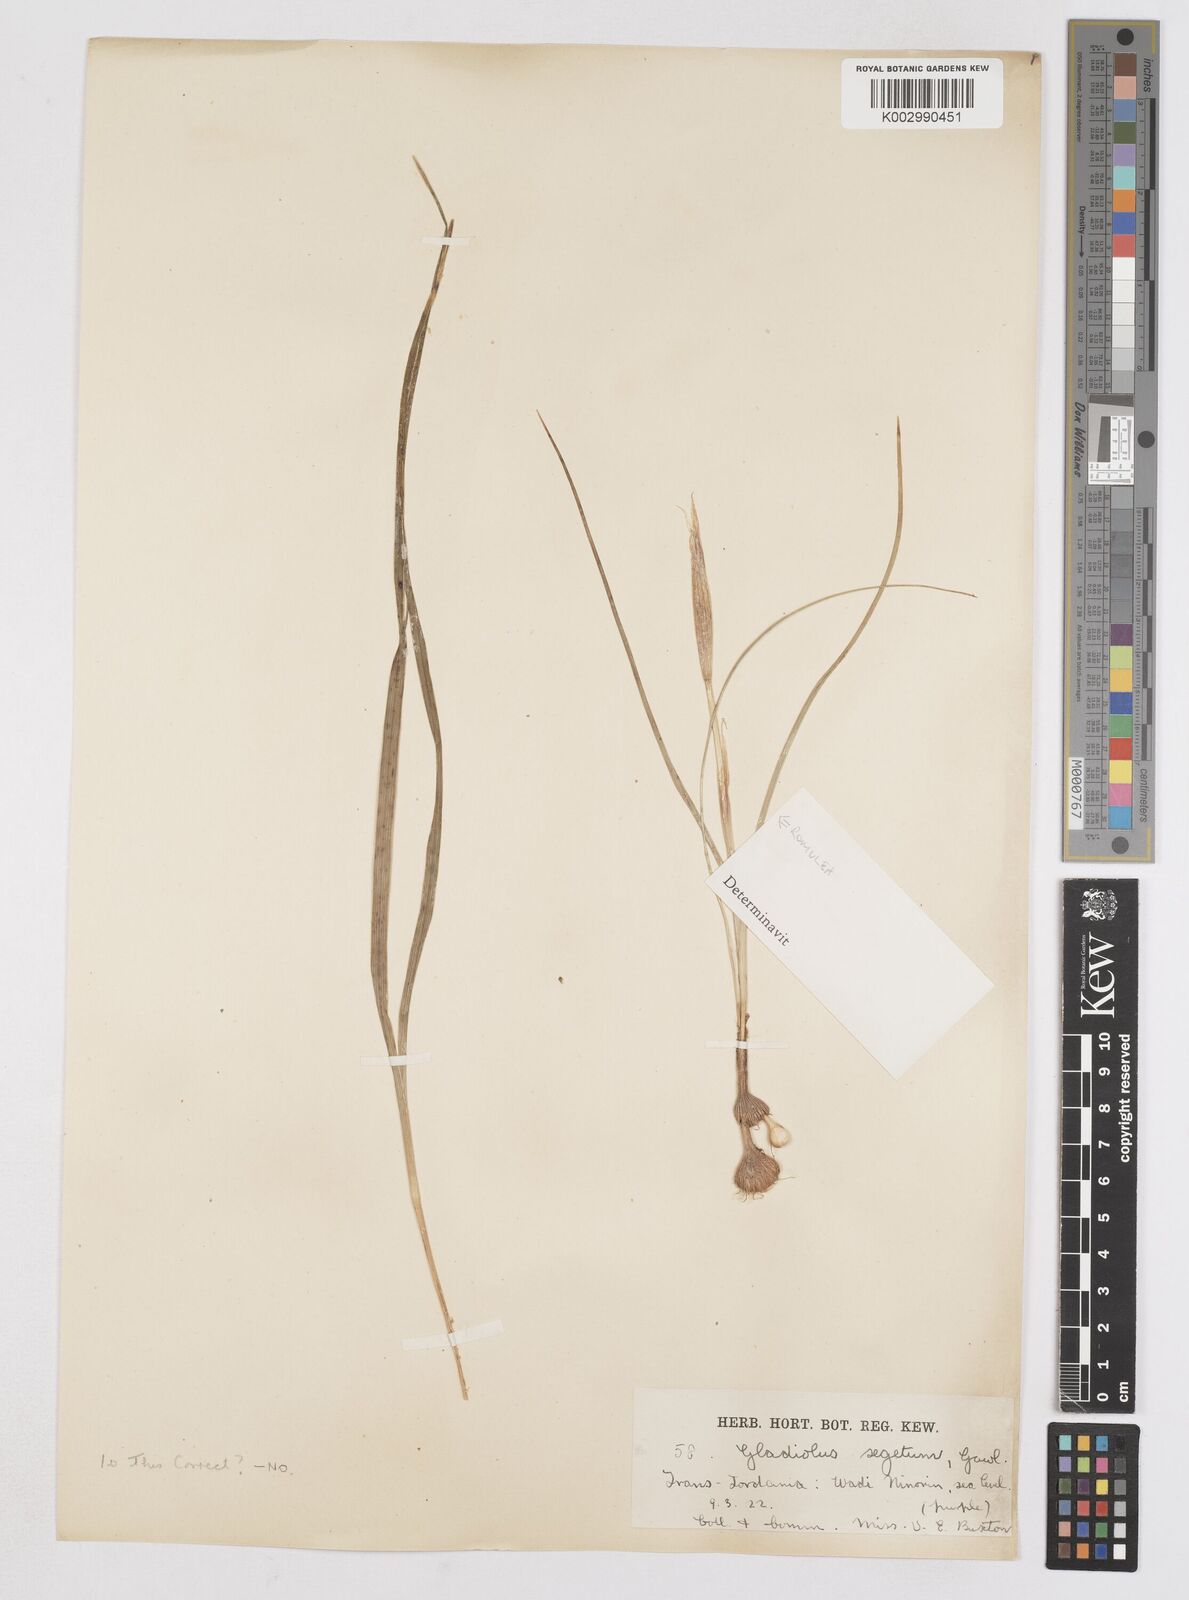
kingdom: Plantae
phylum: Tracheophyta
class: Liliopsida
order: Asparagales
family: Iridaceae
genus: Moraea
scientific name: Moraea sisyrinchium
